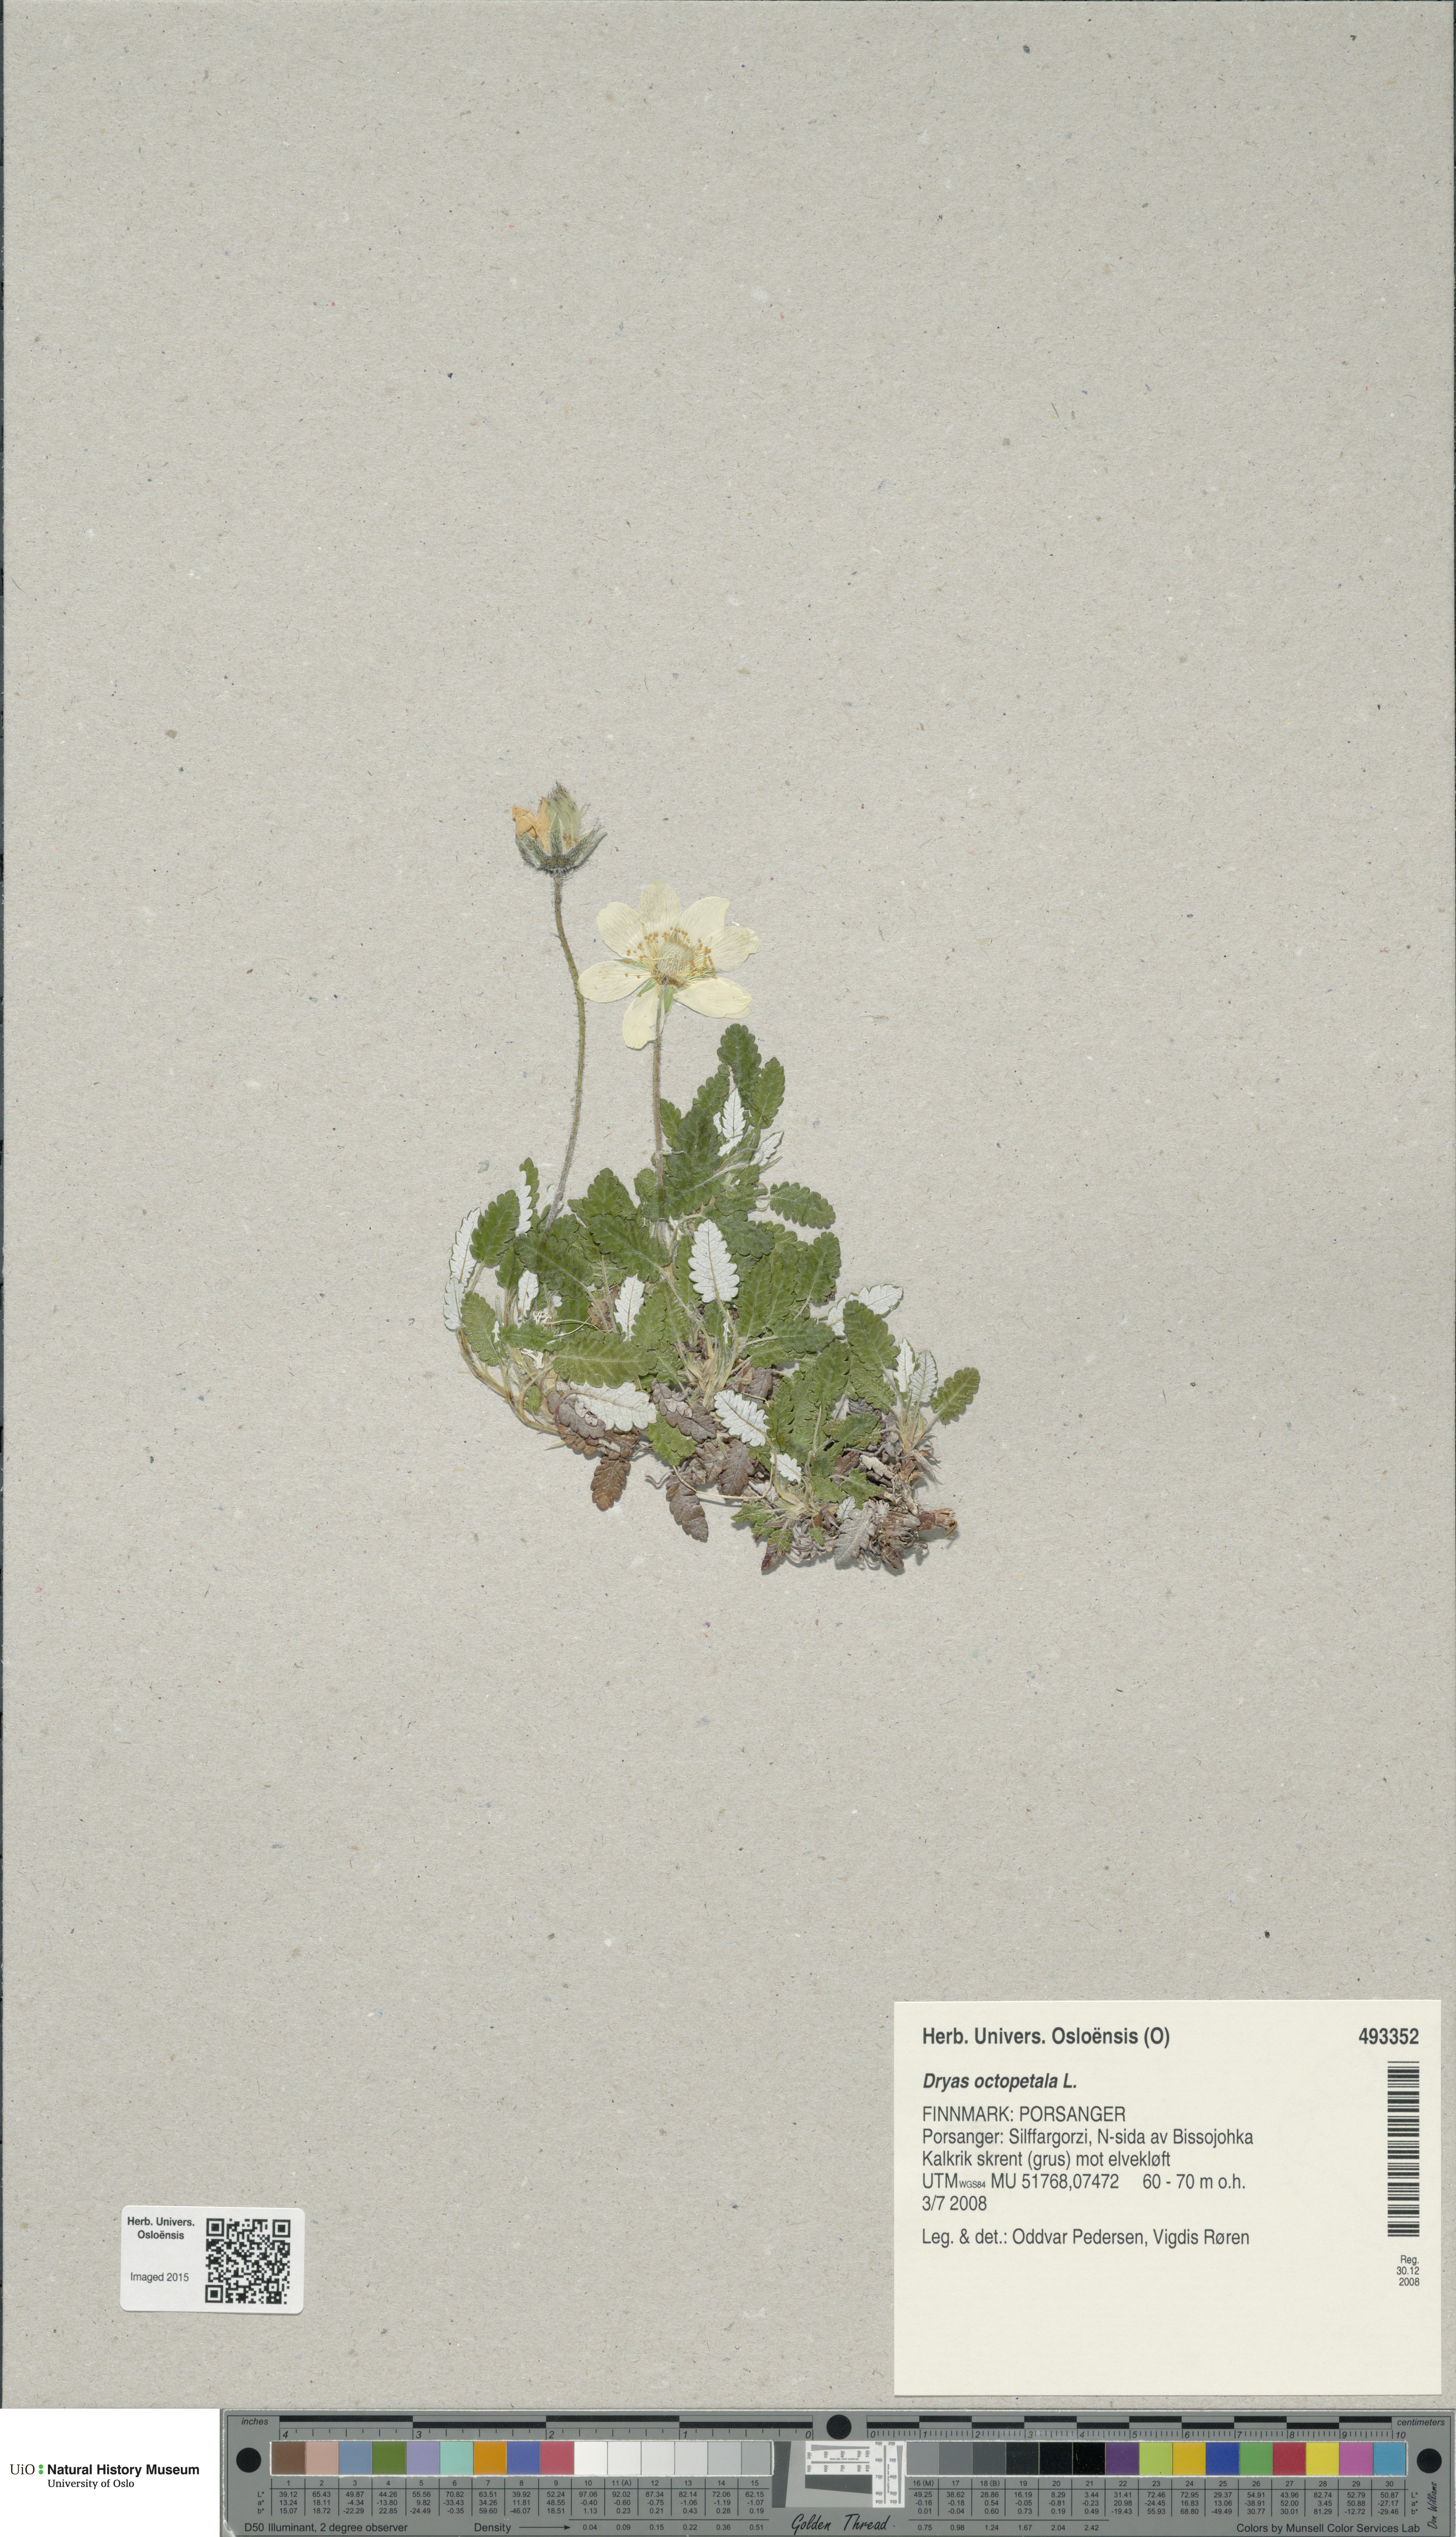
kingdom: Plantae
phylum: Tracheophyta
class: Magnoliopsida
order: Rosales
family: Rosaceae
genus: Dryas
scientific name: Dryas octopetala
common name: Eight-petal mountain-avens
